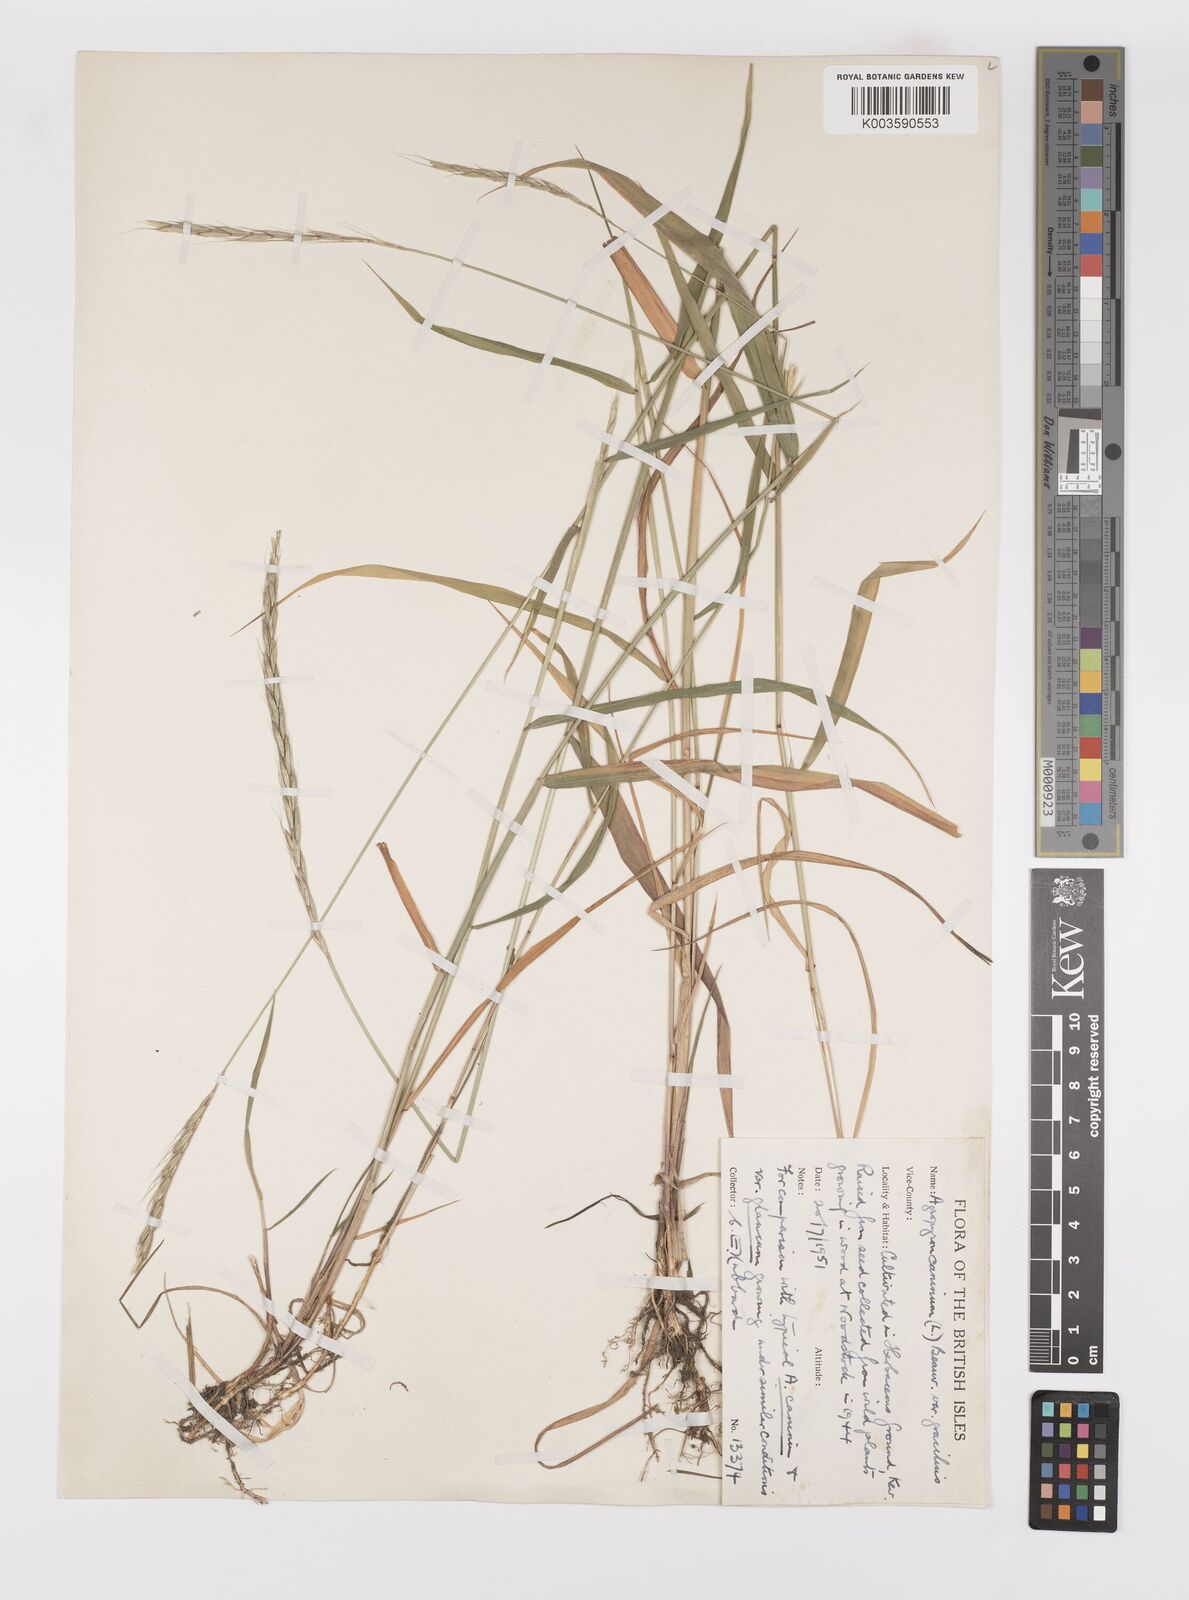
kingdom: Plantae
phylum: Tracheophyta
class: Liliopsida
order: Poales
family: Poaceae
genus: Elymus
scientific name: Elymus caninus
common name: Bearded couch
